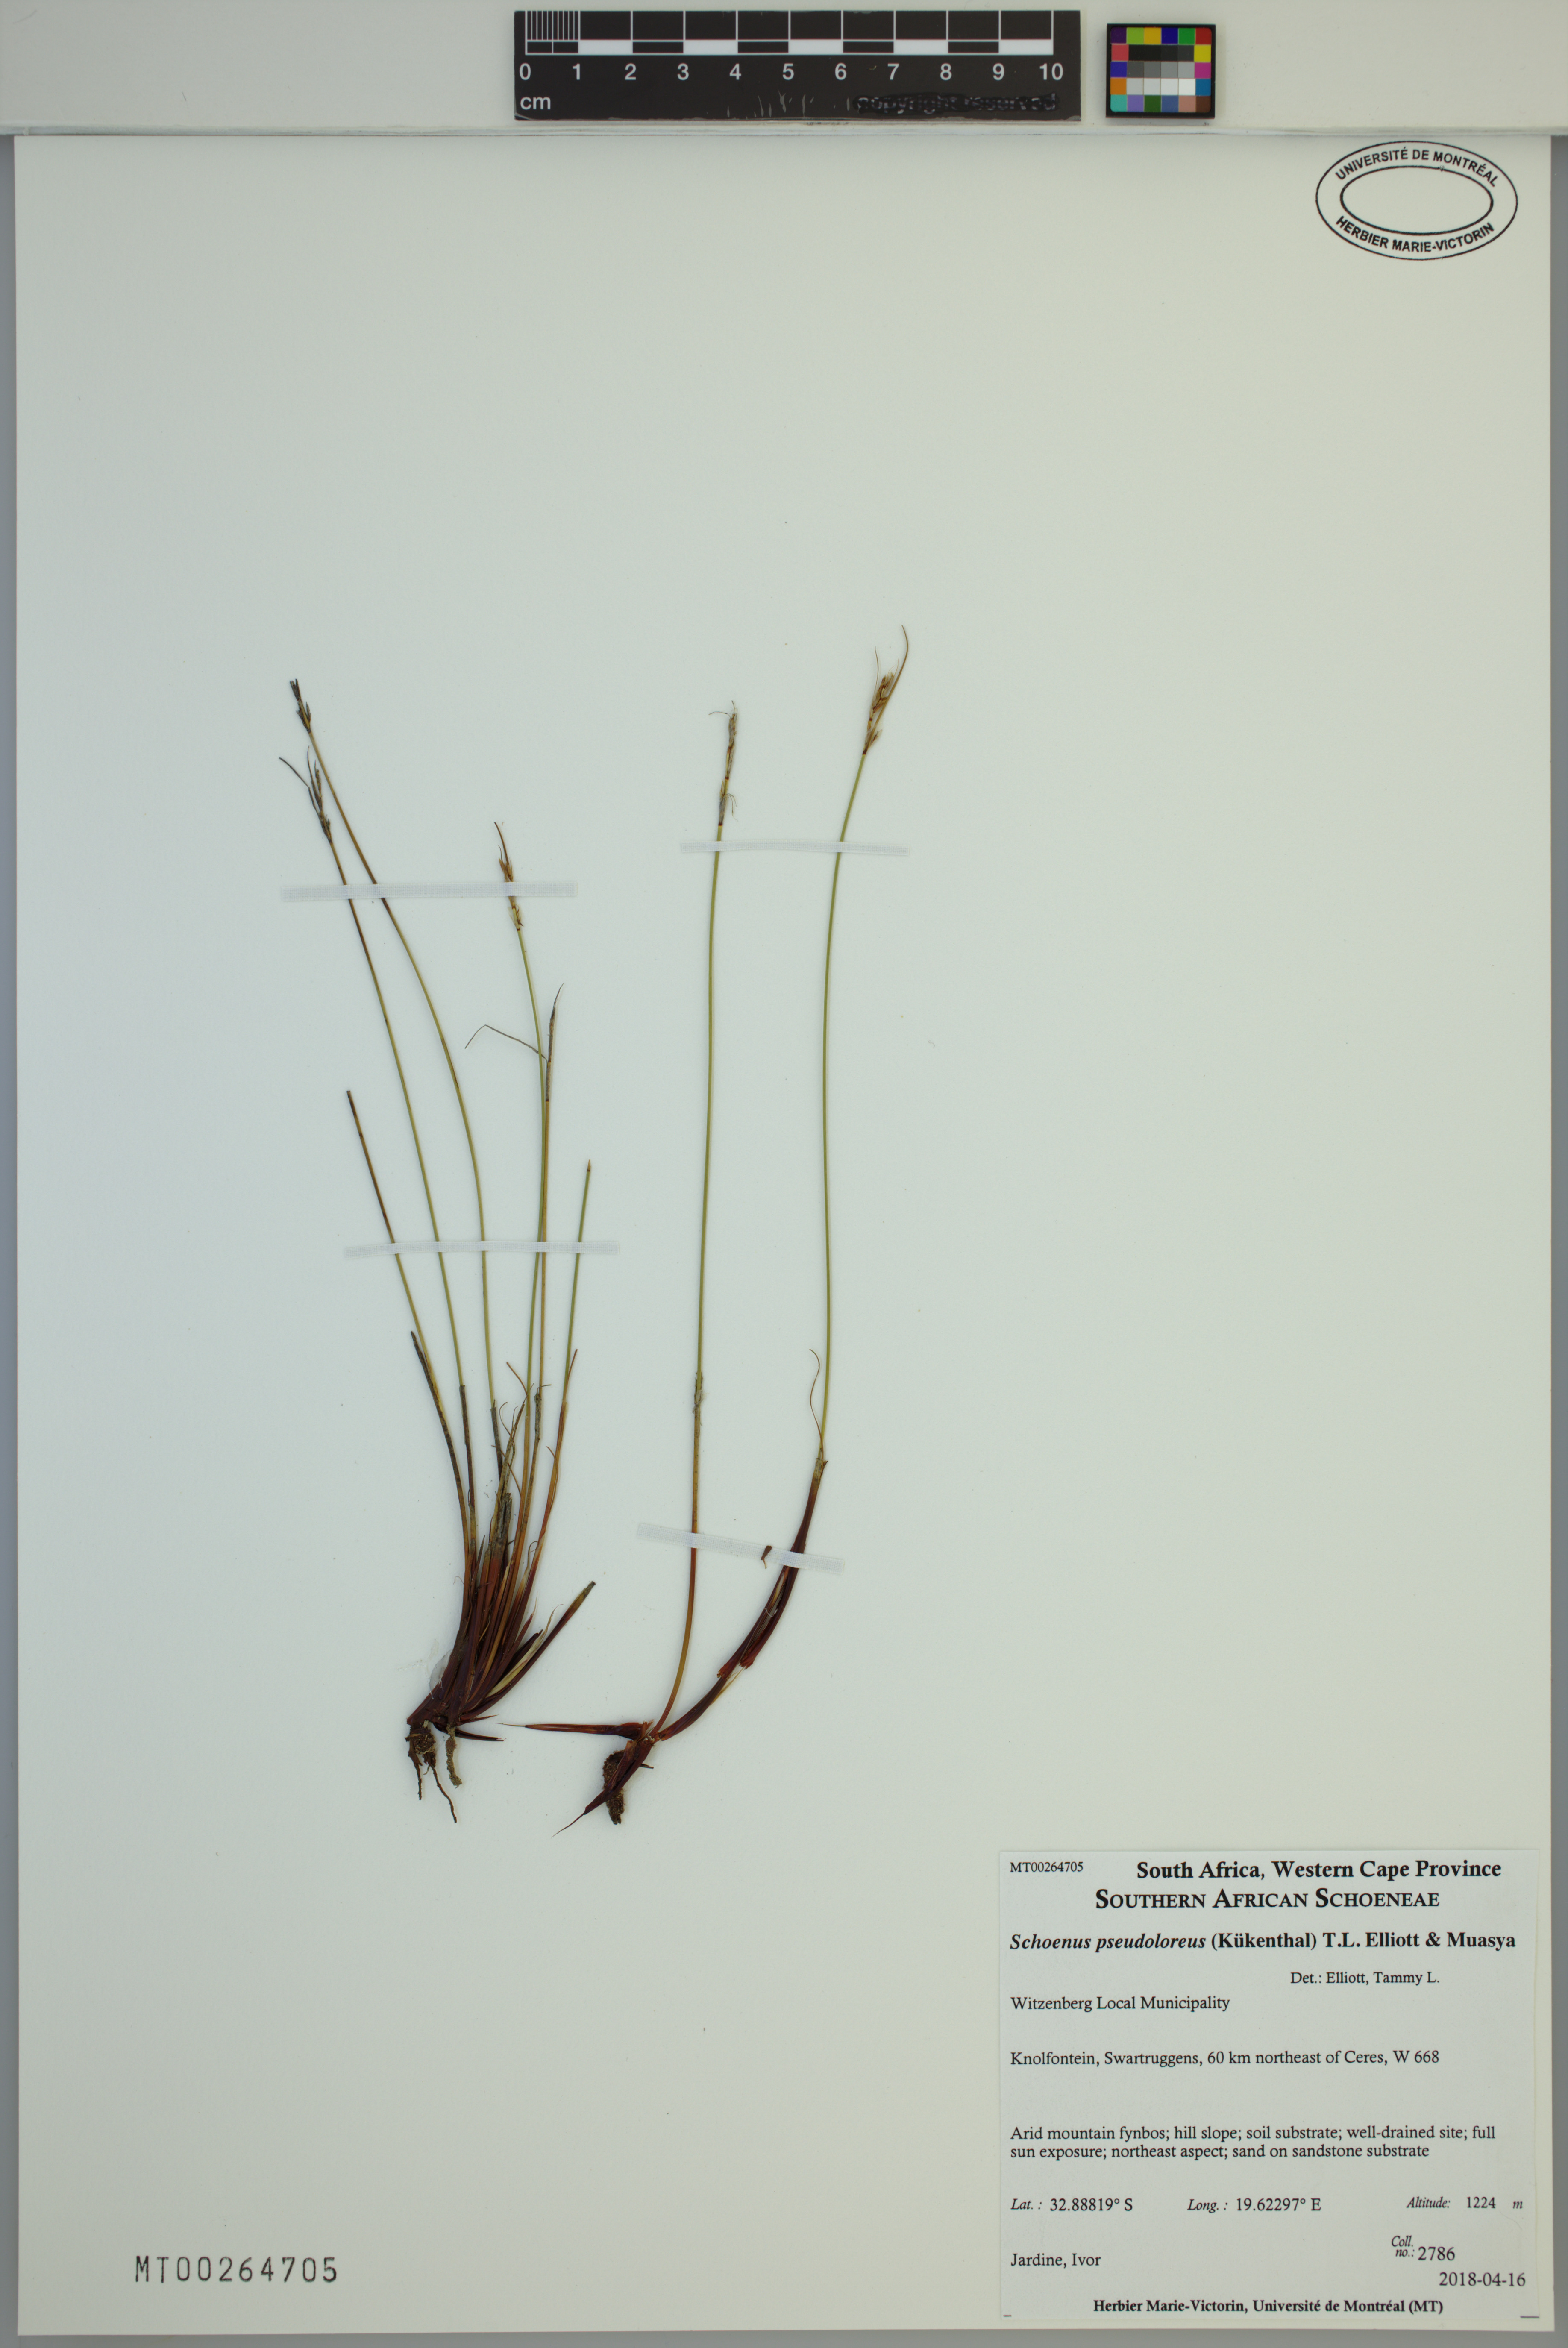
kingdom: Plantae
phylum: Tracheophyta
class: Liliopsida
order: Poales
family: Cyperaceae
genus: Schoenus
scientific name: Schoenus pseudoloreus
